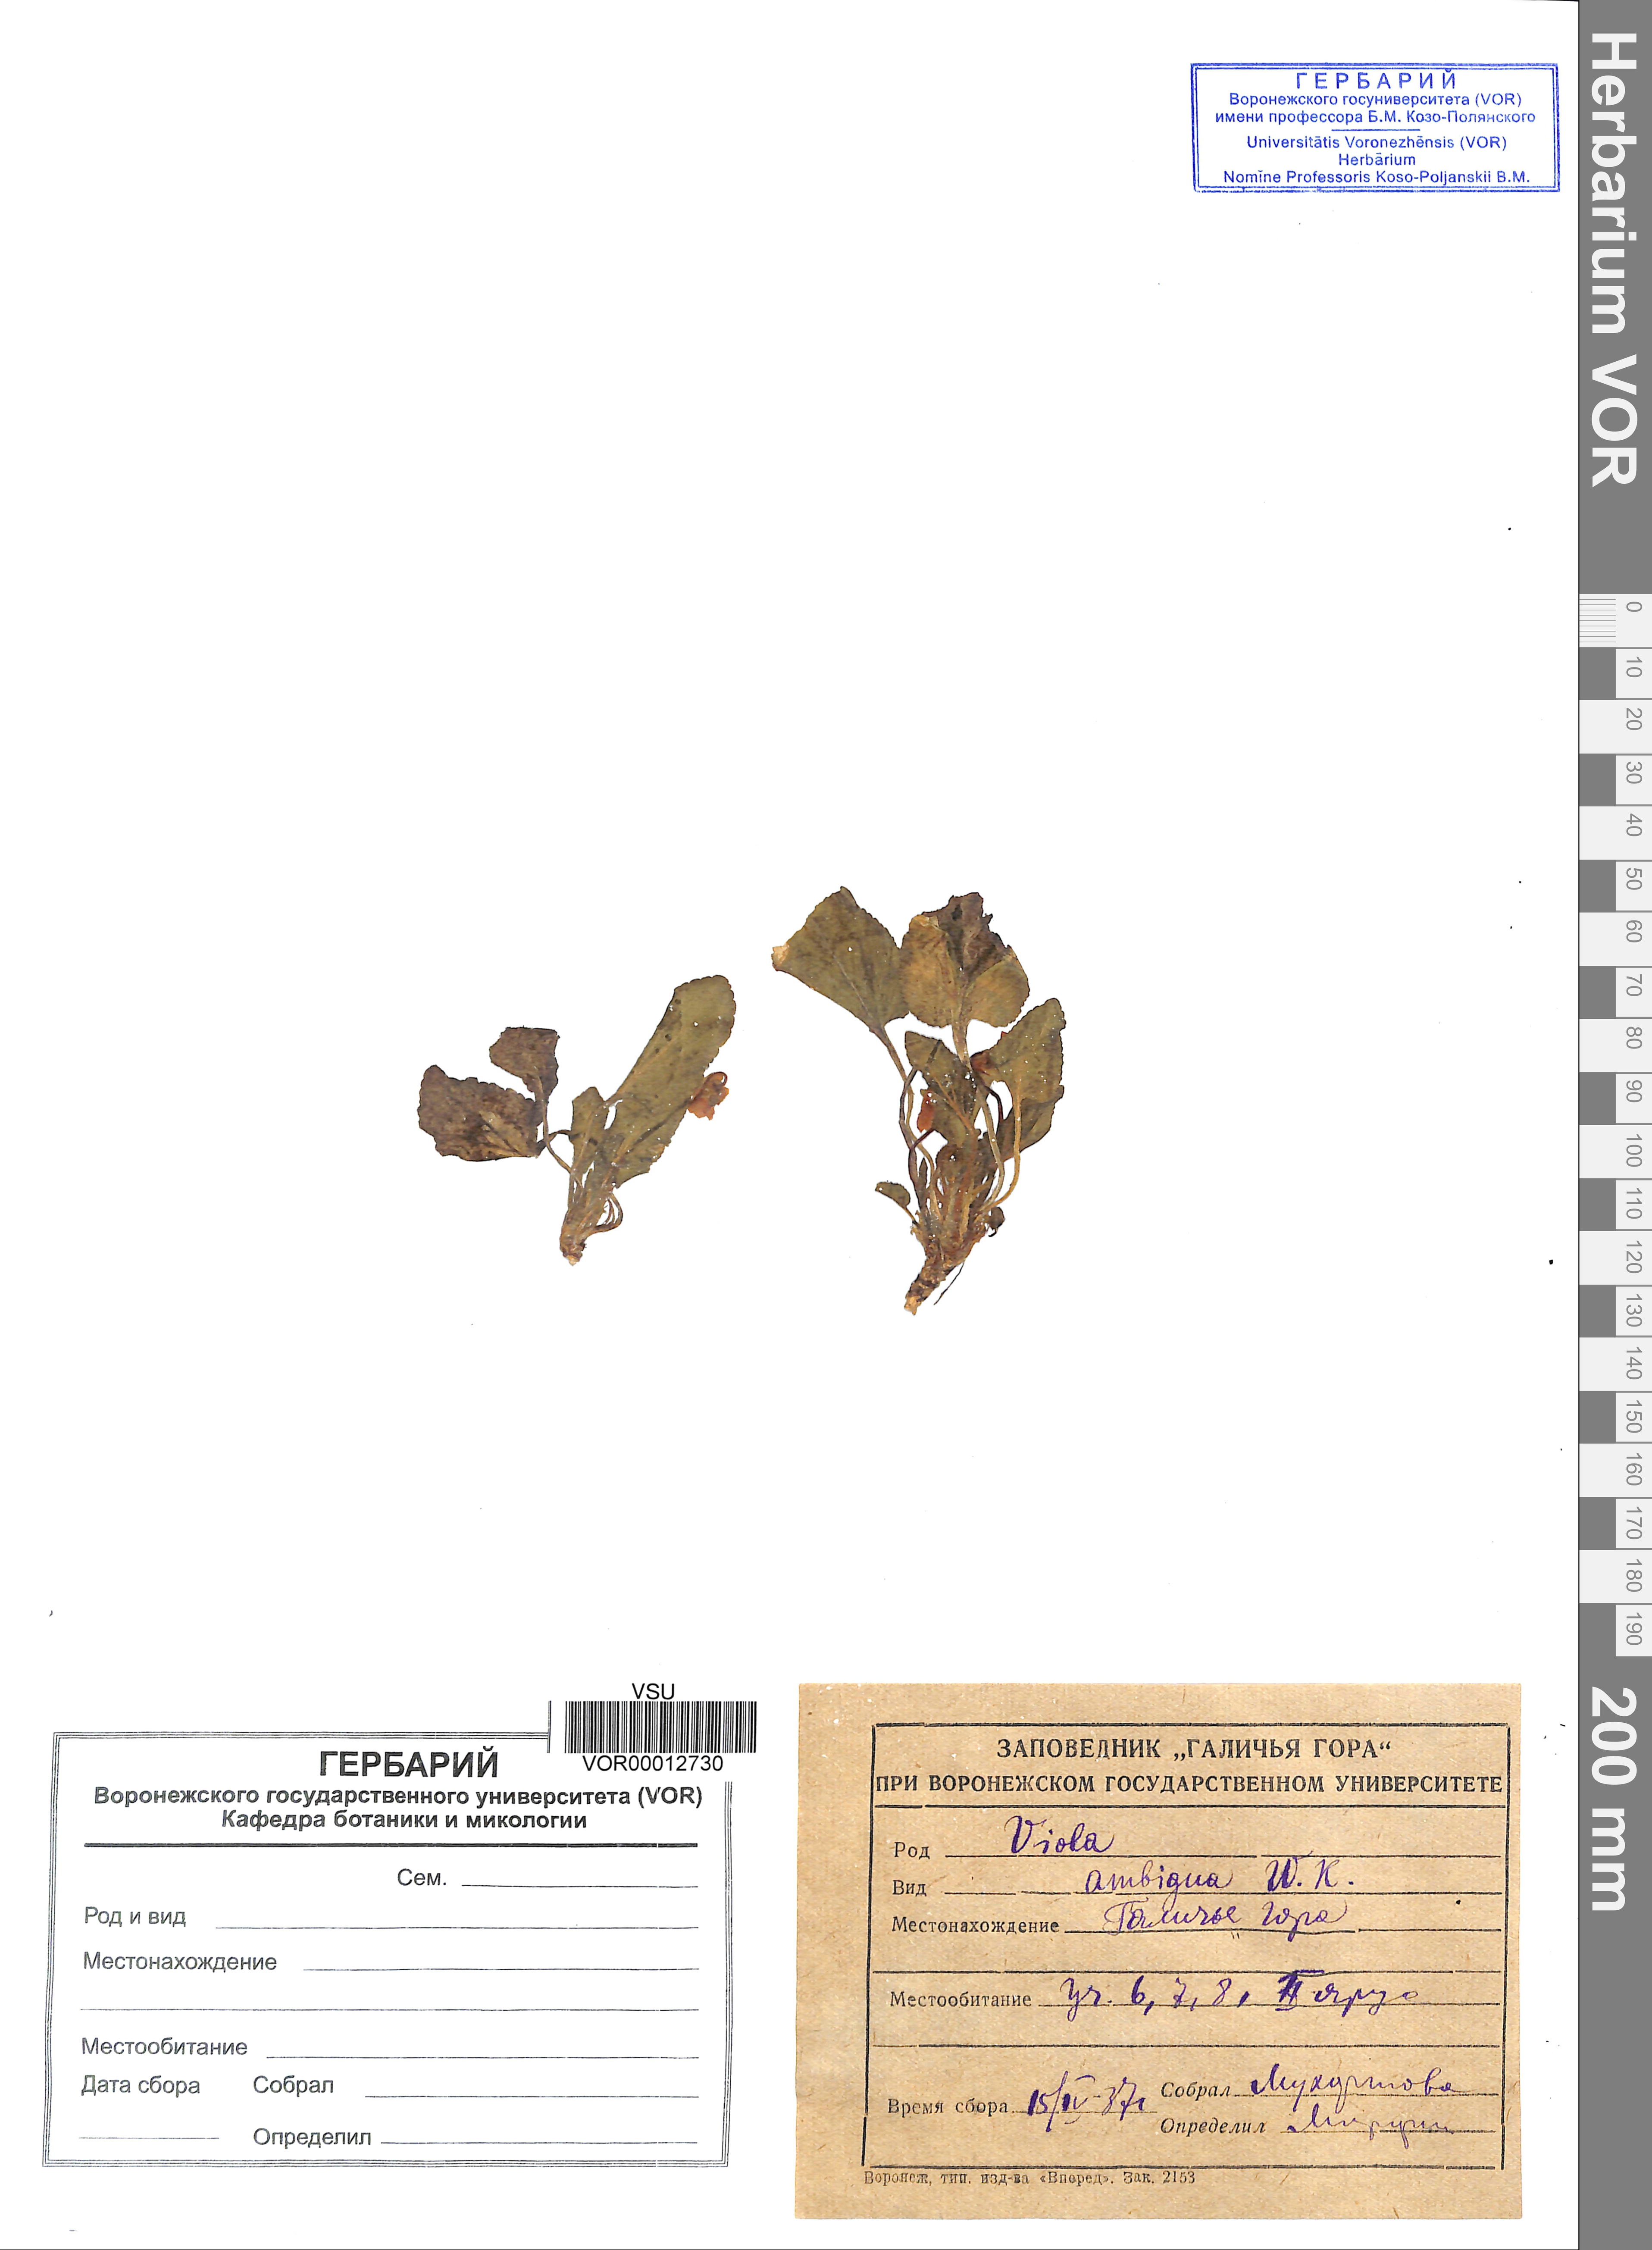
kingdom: Plantae
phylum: Tracheophyta
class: Magnoliopsida
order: Malpighiales
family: Violaceae
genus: Viola
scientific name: Viola ambigua
